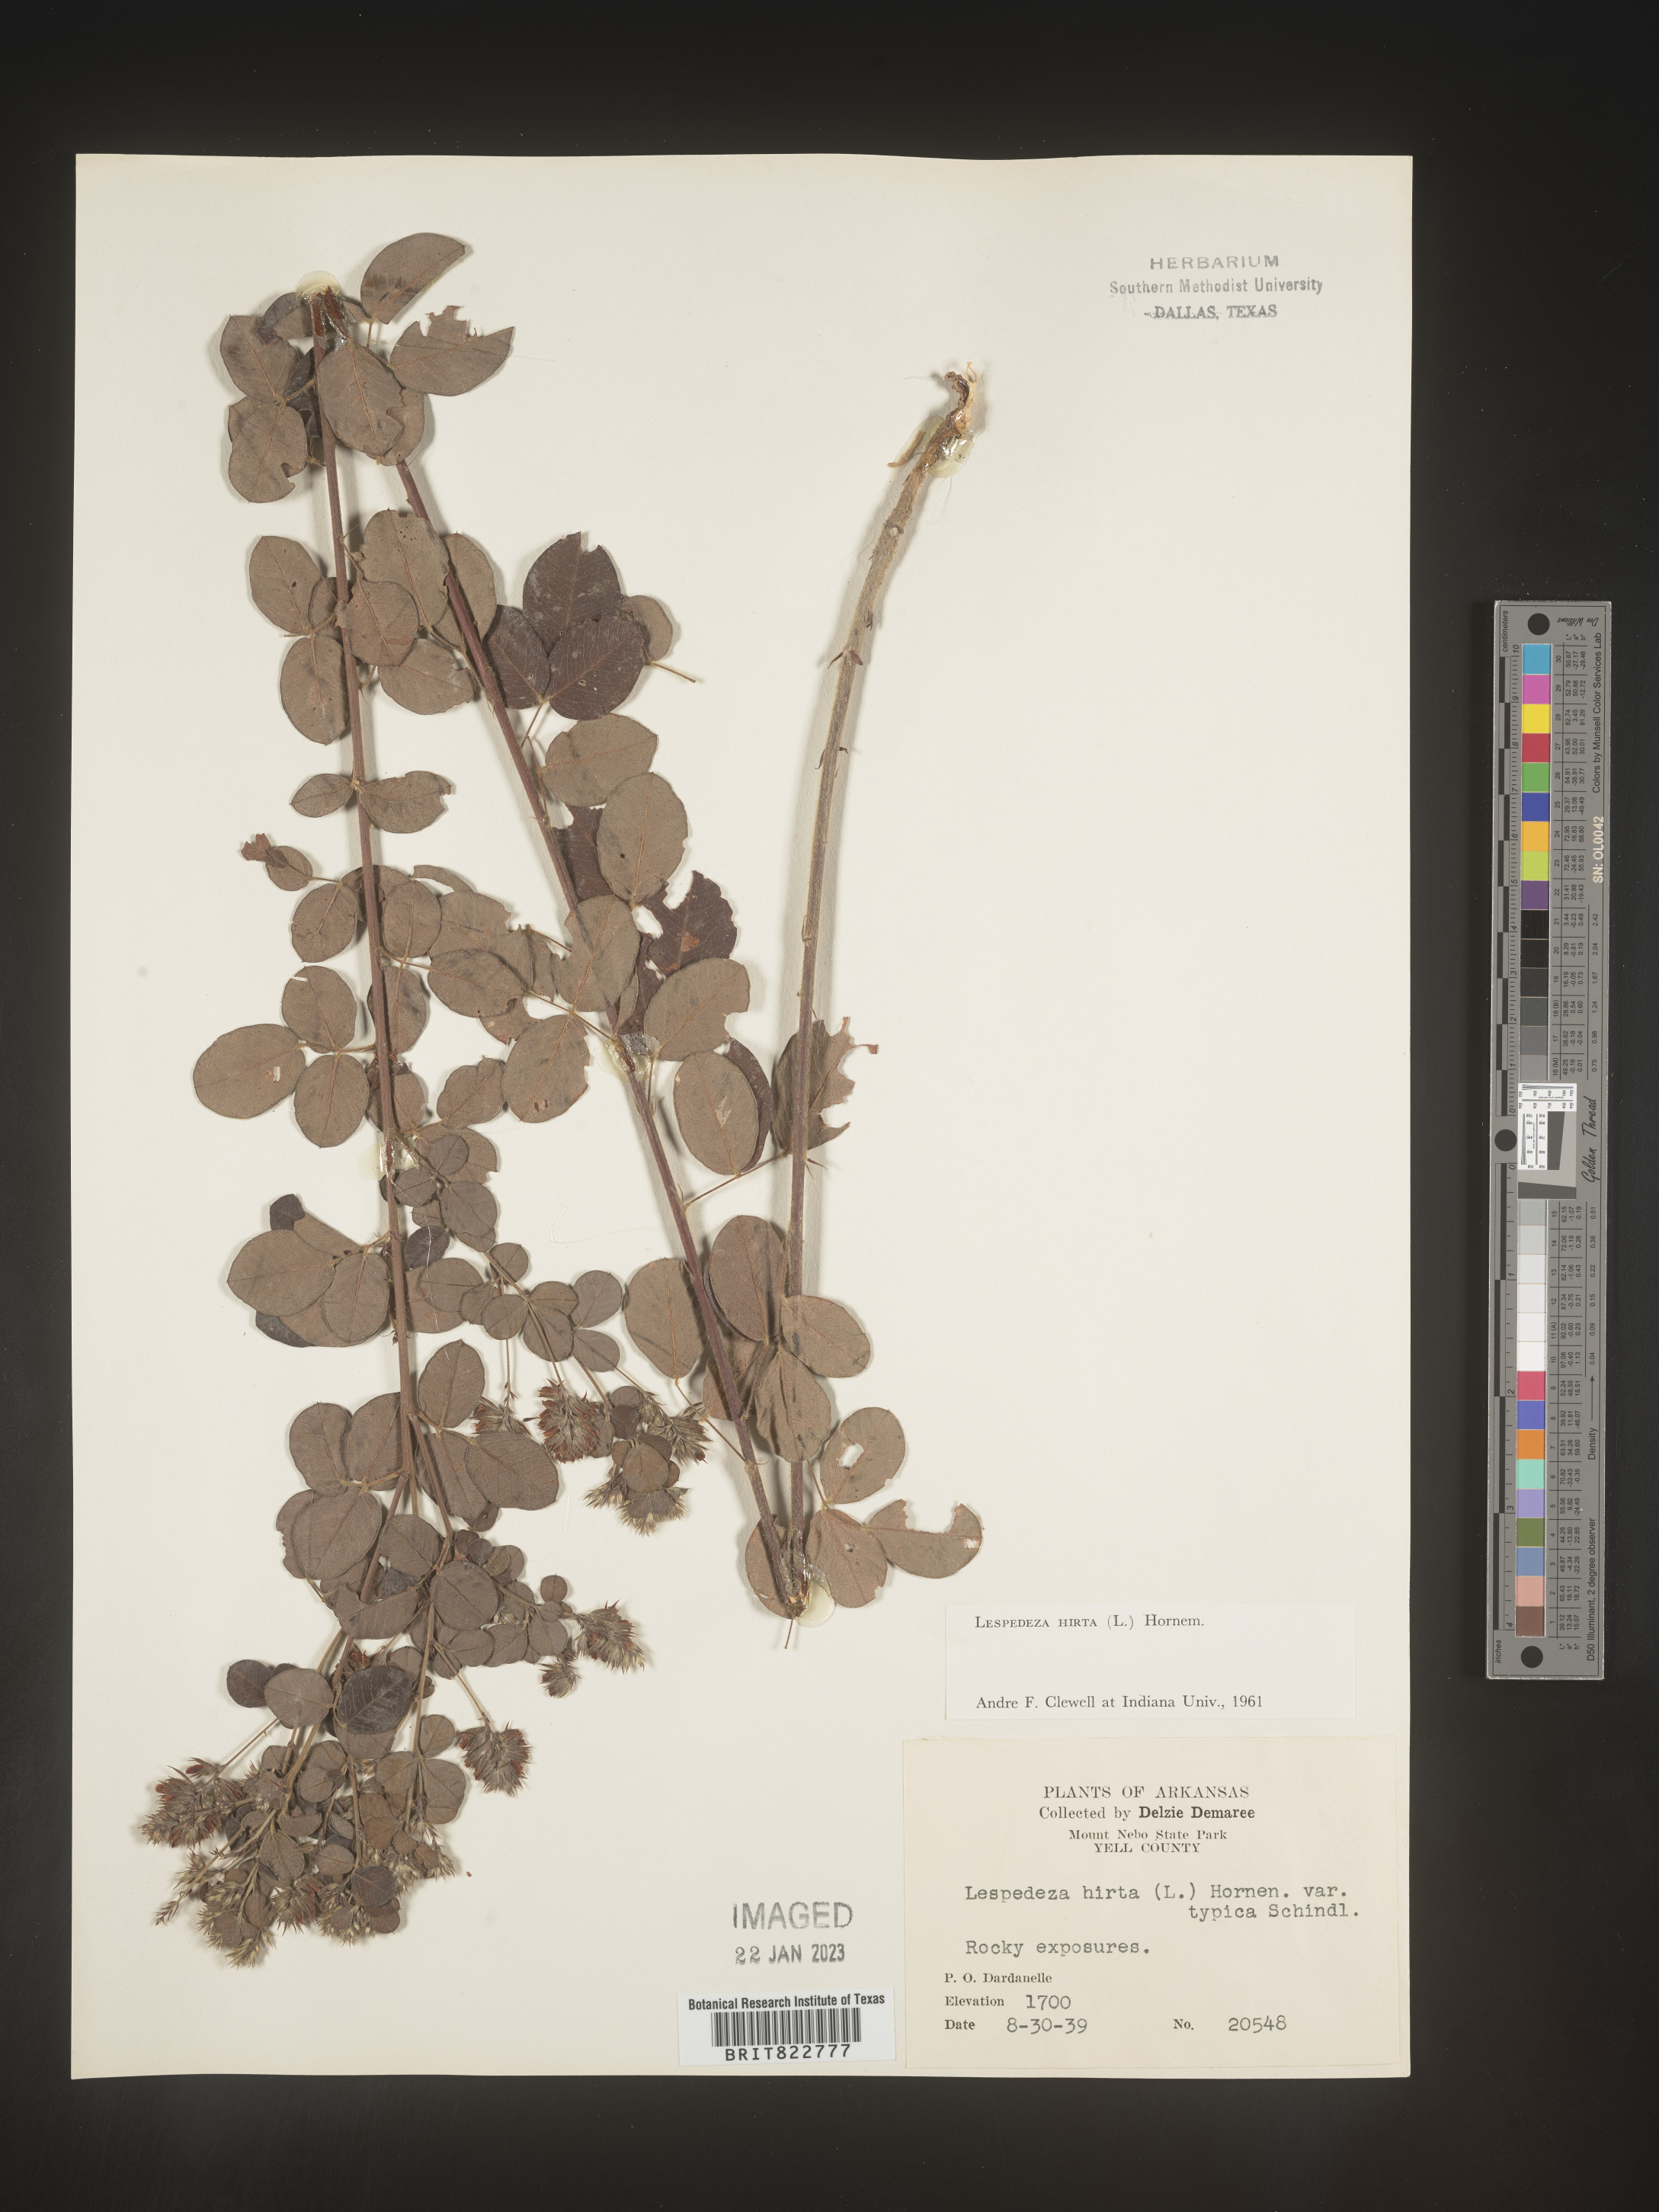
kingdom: Plantae
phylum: Tracheophyta
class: Magnoliopsida
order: Fabales
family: Fabaceae
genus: Lespedeza
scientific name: Lespedeza hirta
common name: Hairy lespedeza
